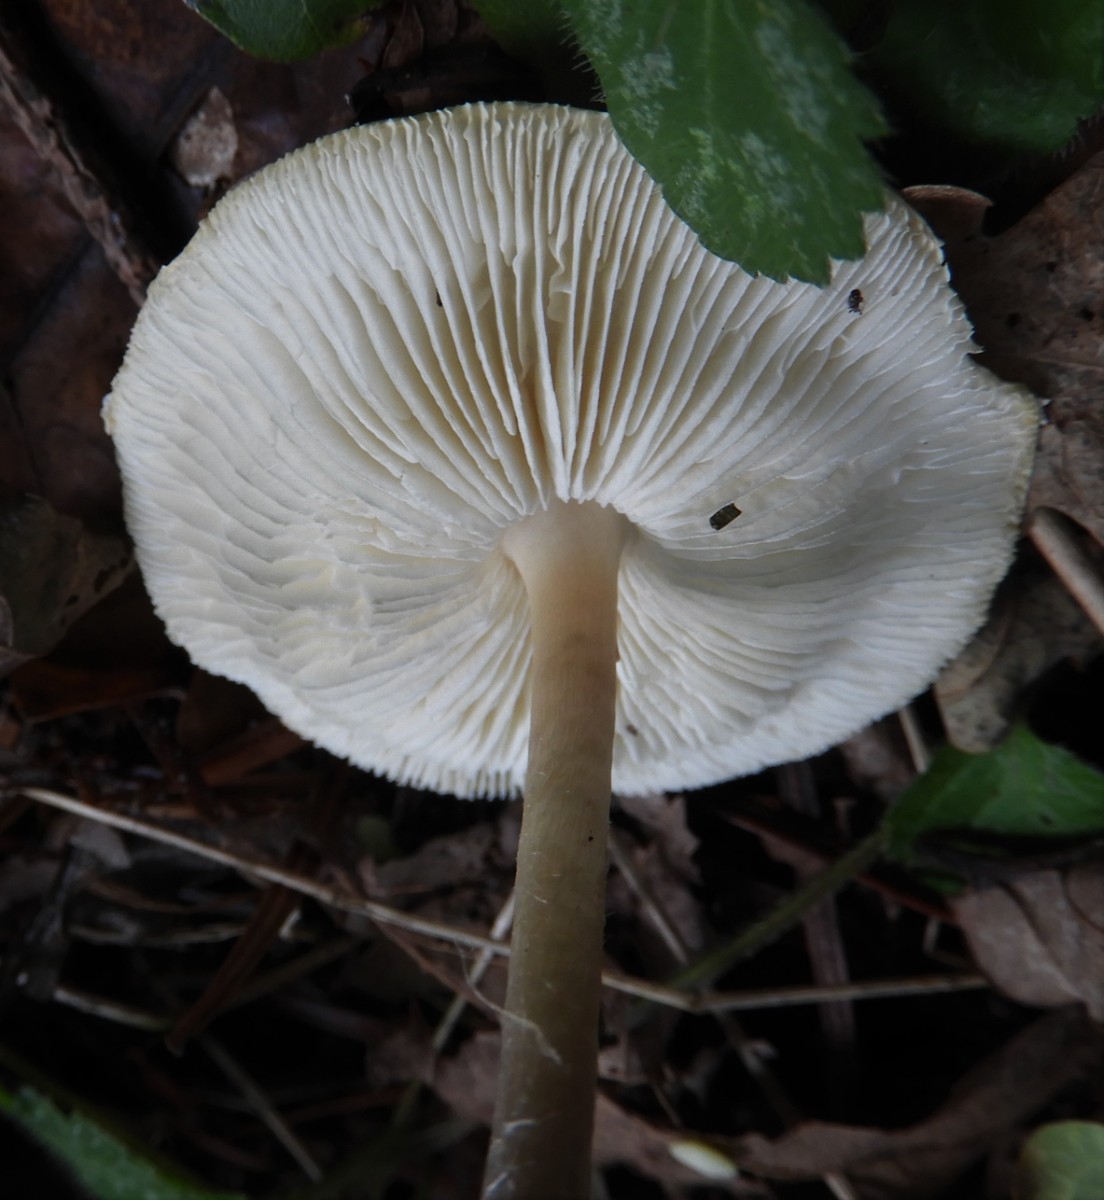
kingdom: Fungi
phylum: Basidiomycota
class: Agaricomycetes
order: Agaricales
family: Agaricaceae
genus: Lepiota
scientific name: Lepiota cristata
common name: stinkende parasolhat
